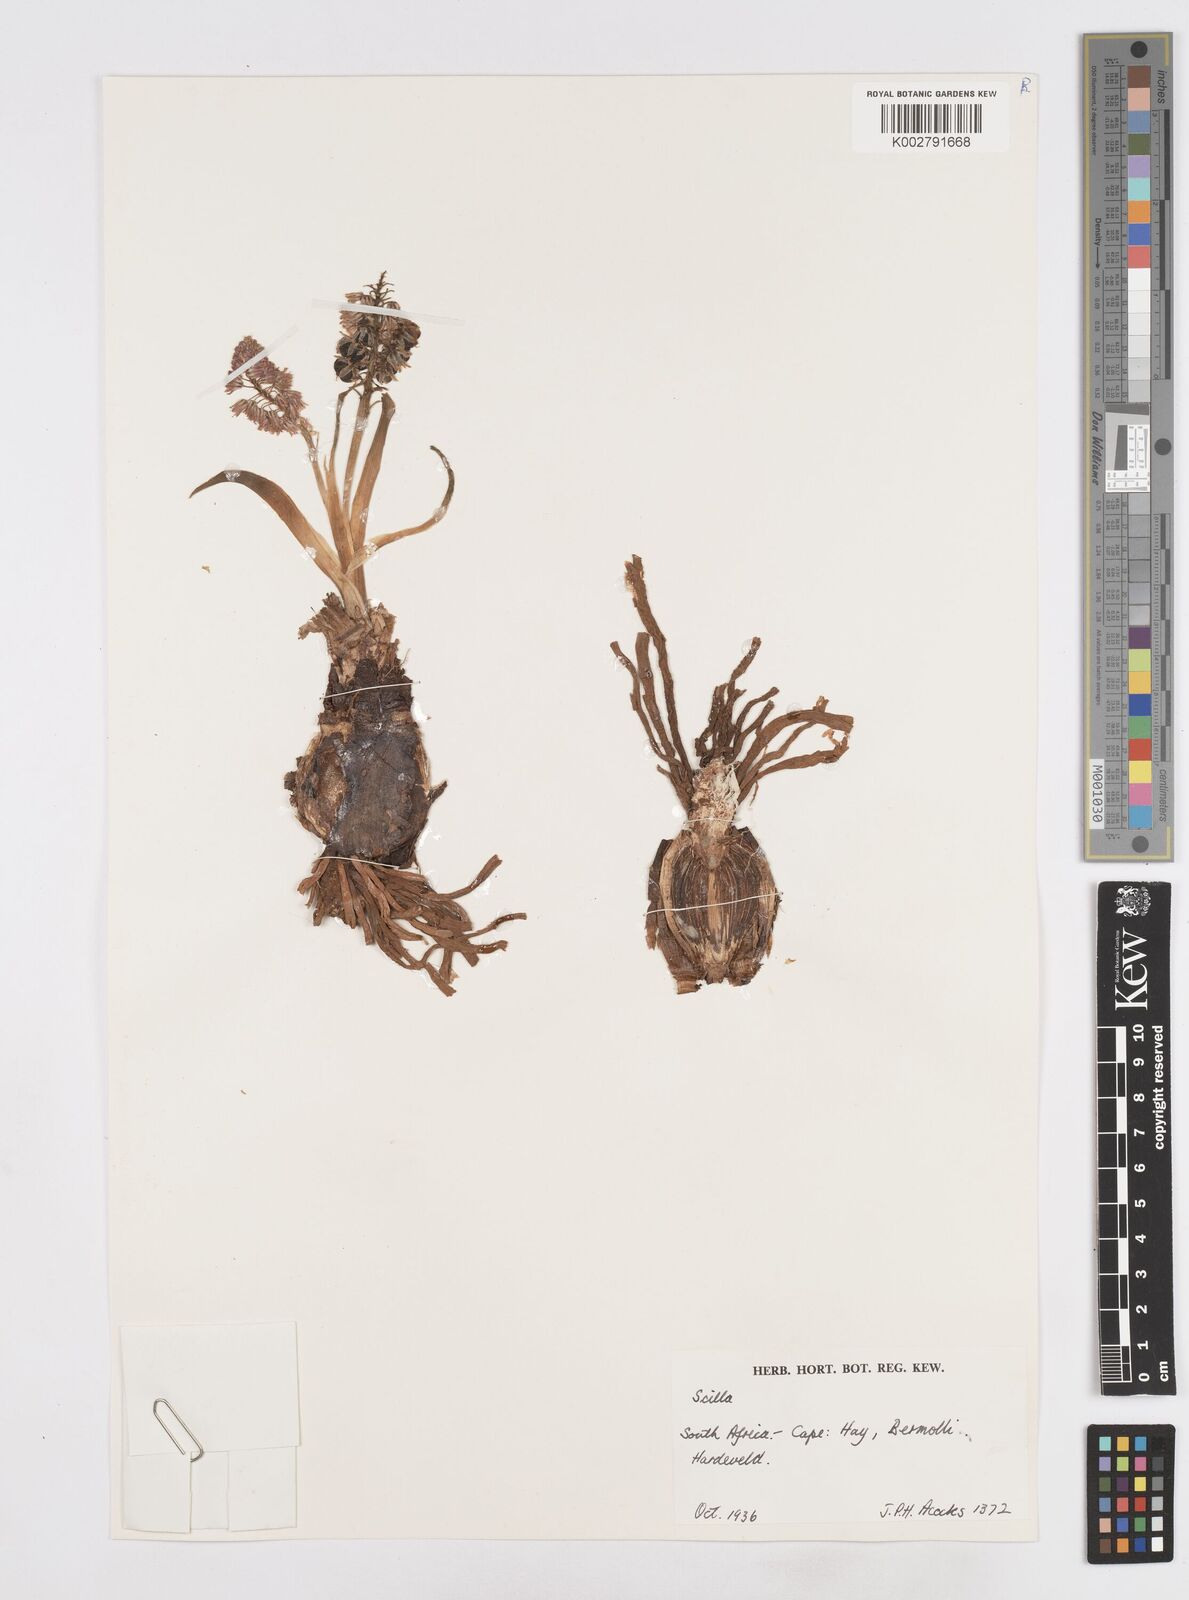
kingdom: Plantae
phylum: Tracheophyta
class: Liliopsida
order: Asparagales
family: Asparagaceae
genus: Scilla
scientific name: Scilla
